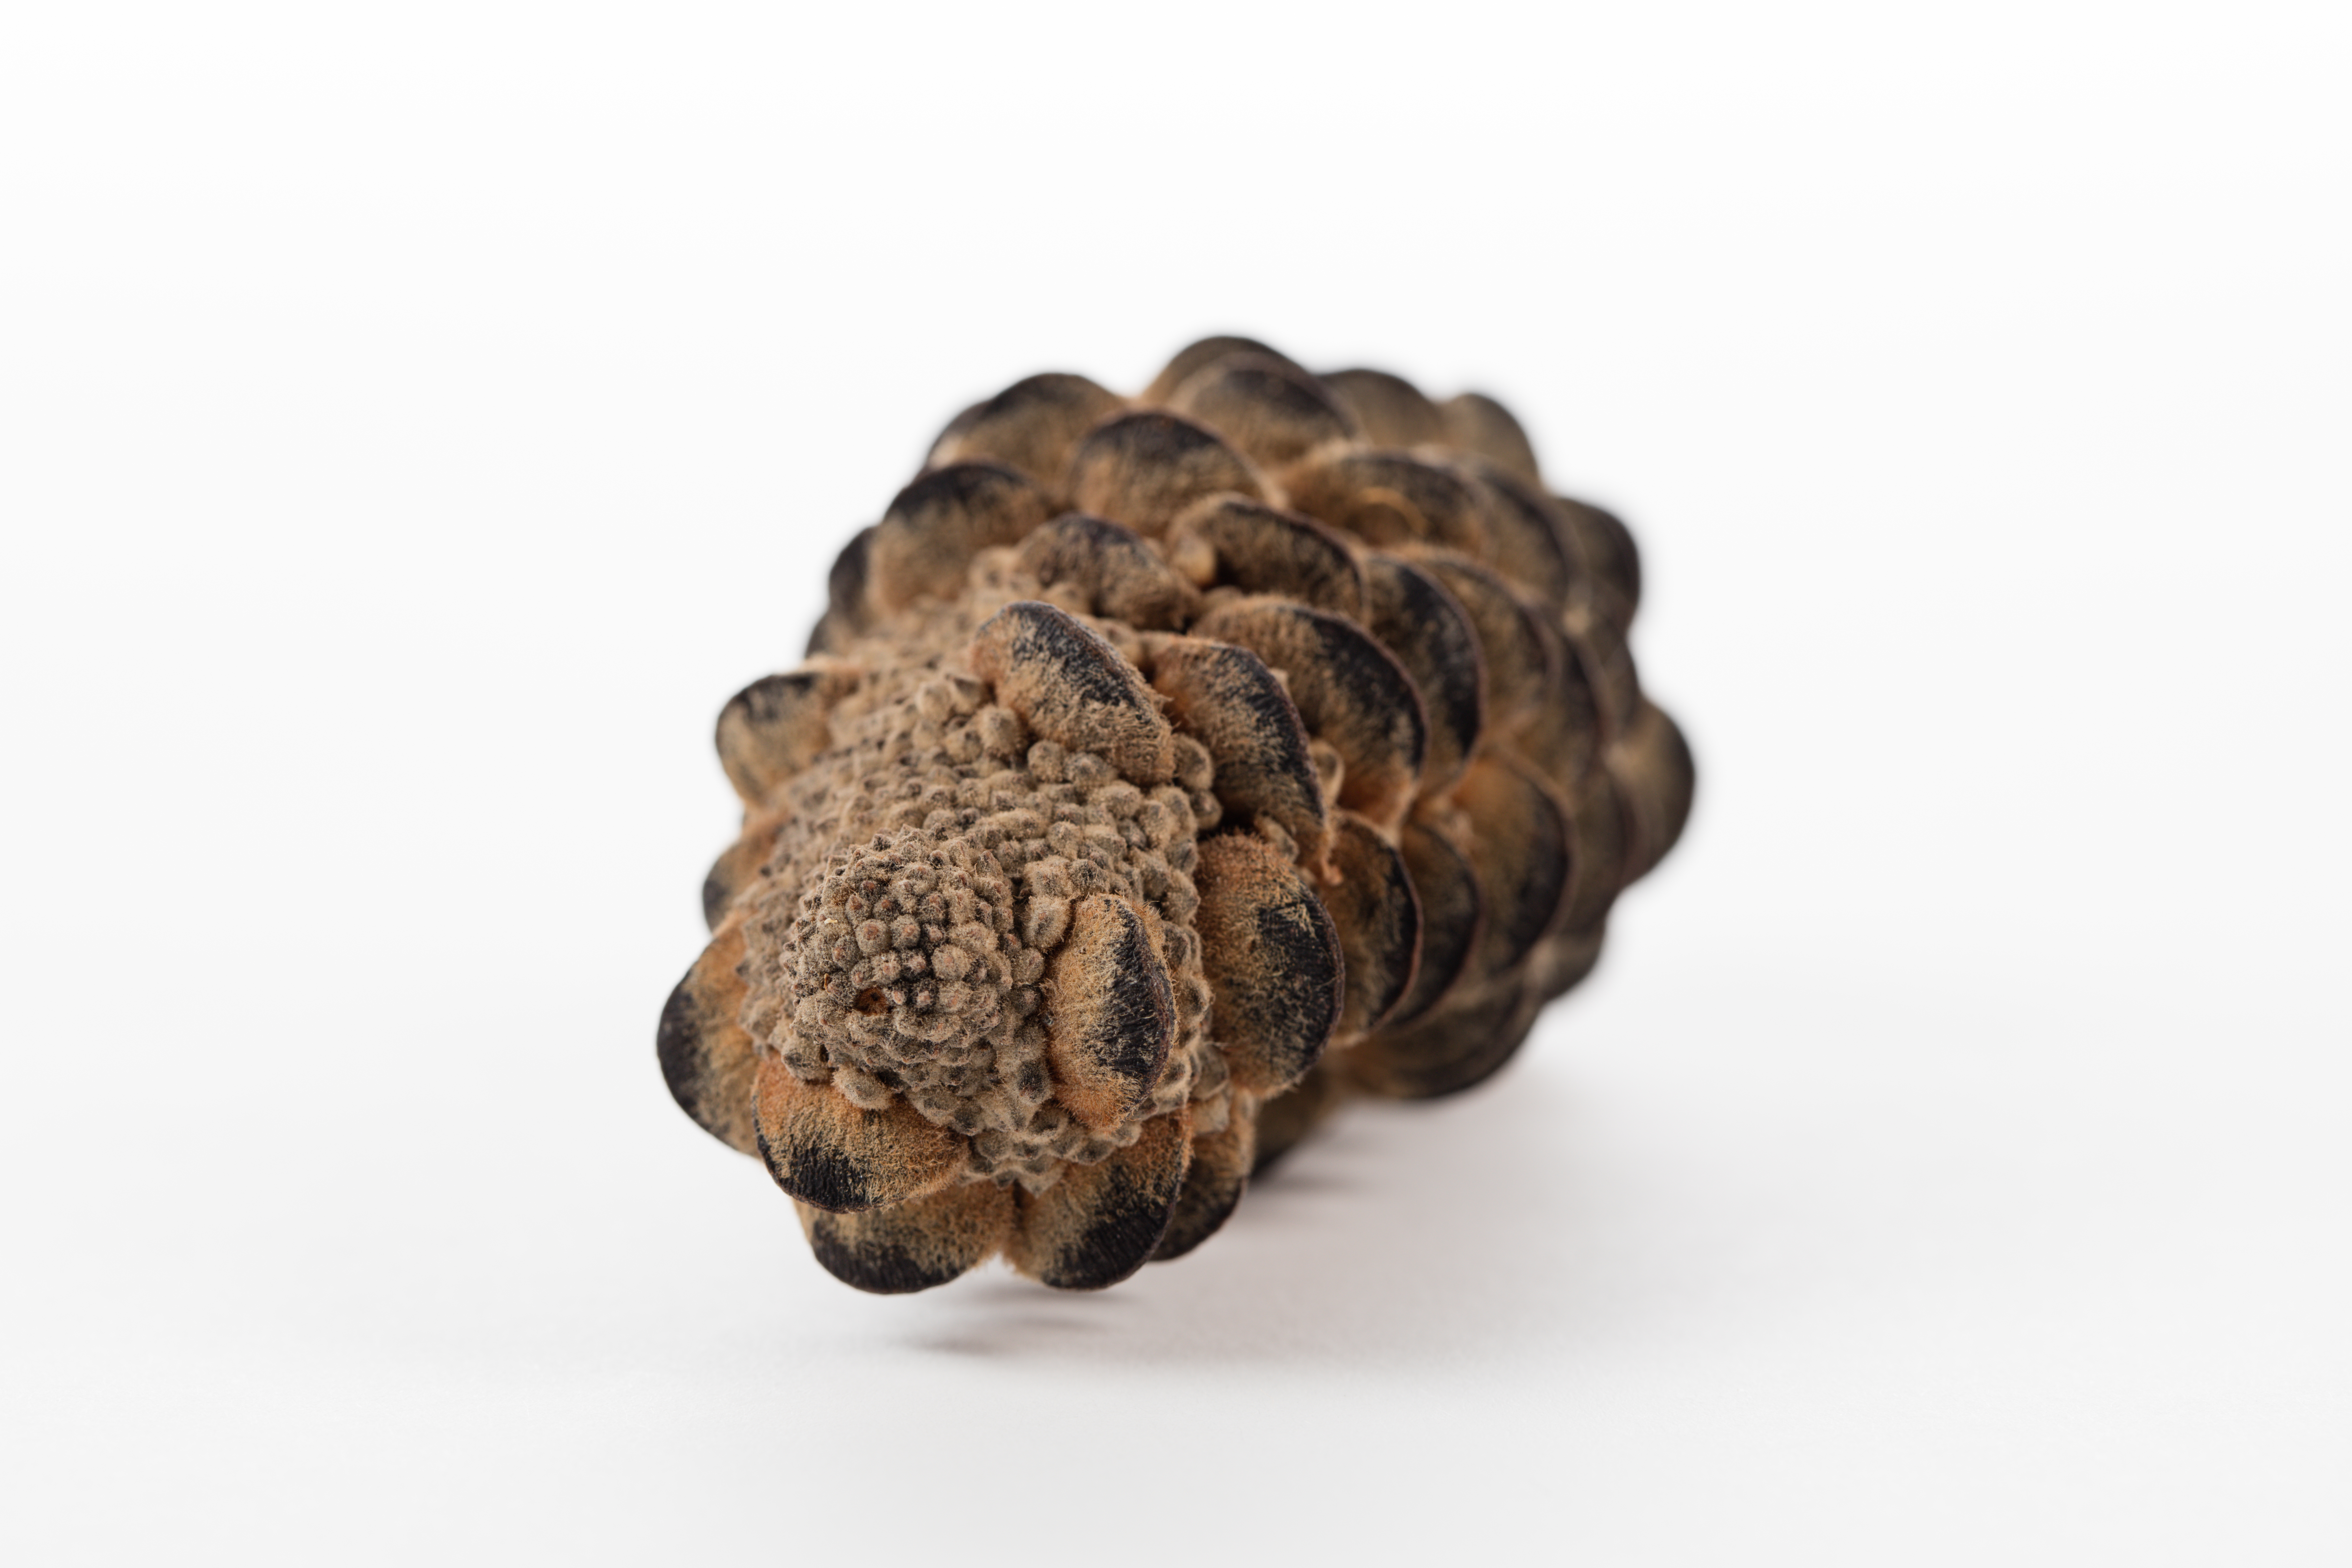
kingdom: Plantae
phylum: Tracheophyta
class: Magnoliopsida
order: Proteales
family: Proteaceae
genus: Banksia
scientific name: Banksia integrifolia
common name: White-honeysuckle
